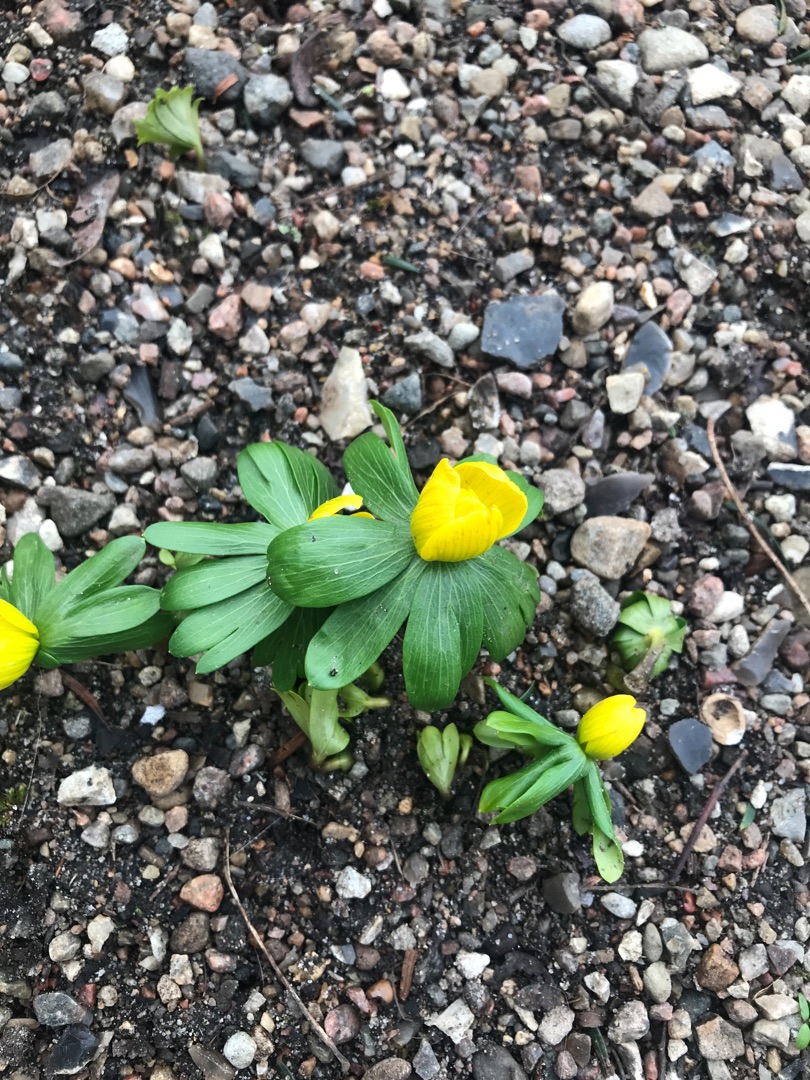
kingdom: Plantae
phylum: Tracheophyta
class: Magnoliopsida
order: Ranunculales
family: Ranunculaceae
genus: Eranthis
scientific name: Eranthis hyemalis
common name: Erantis
